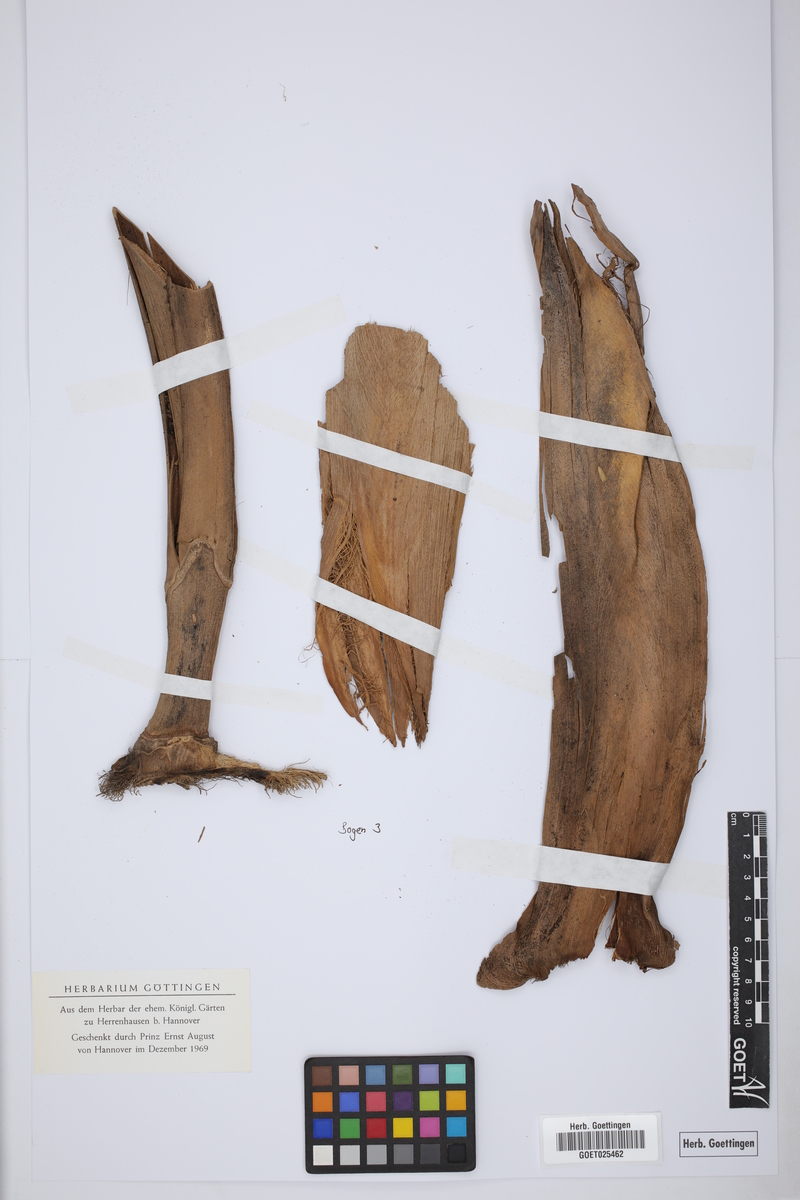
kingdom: Plantae
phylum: Tracheophyta
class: Liliopsida
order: Arecales
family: Arecaceae
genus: Cocos
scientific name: Cocos
